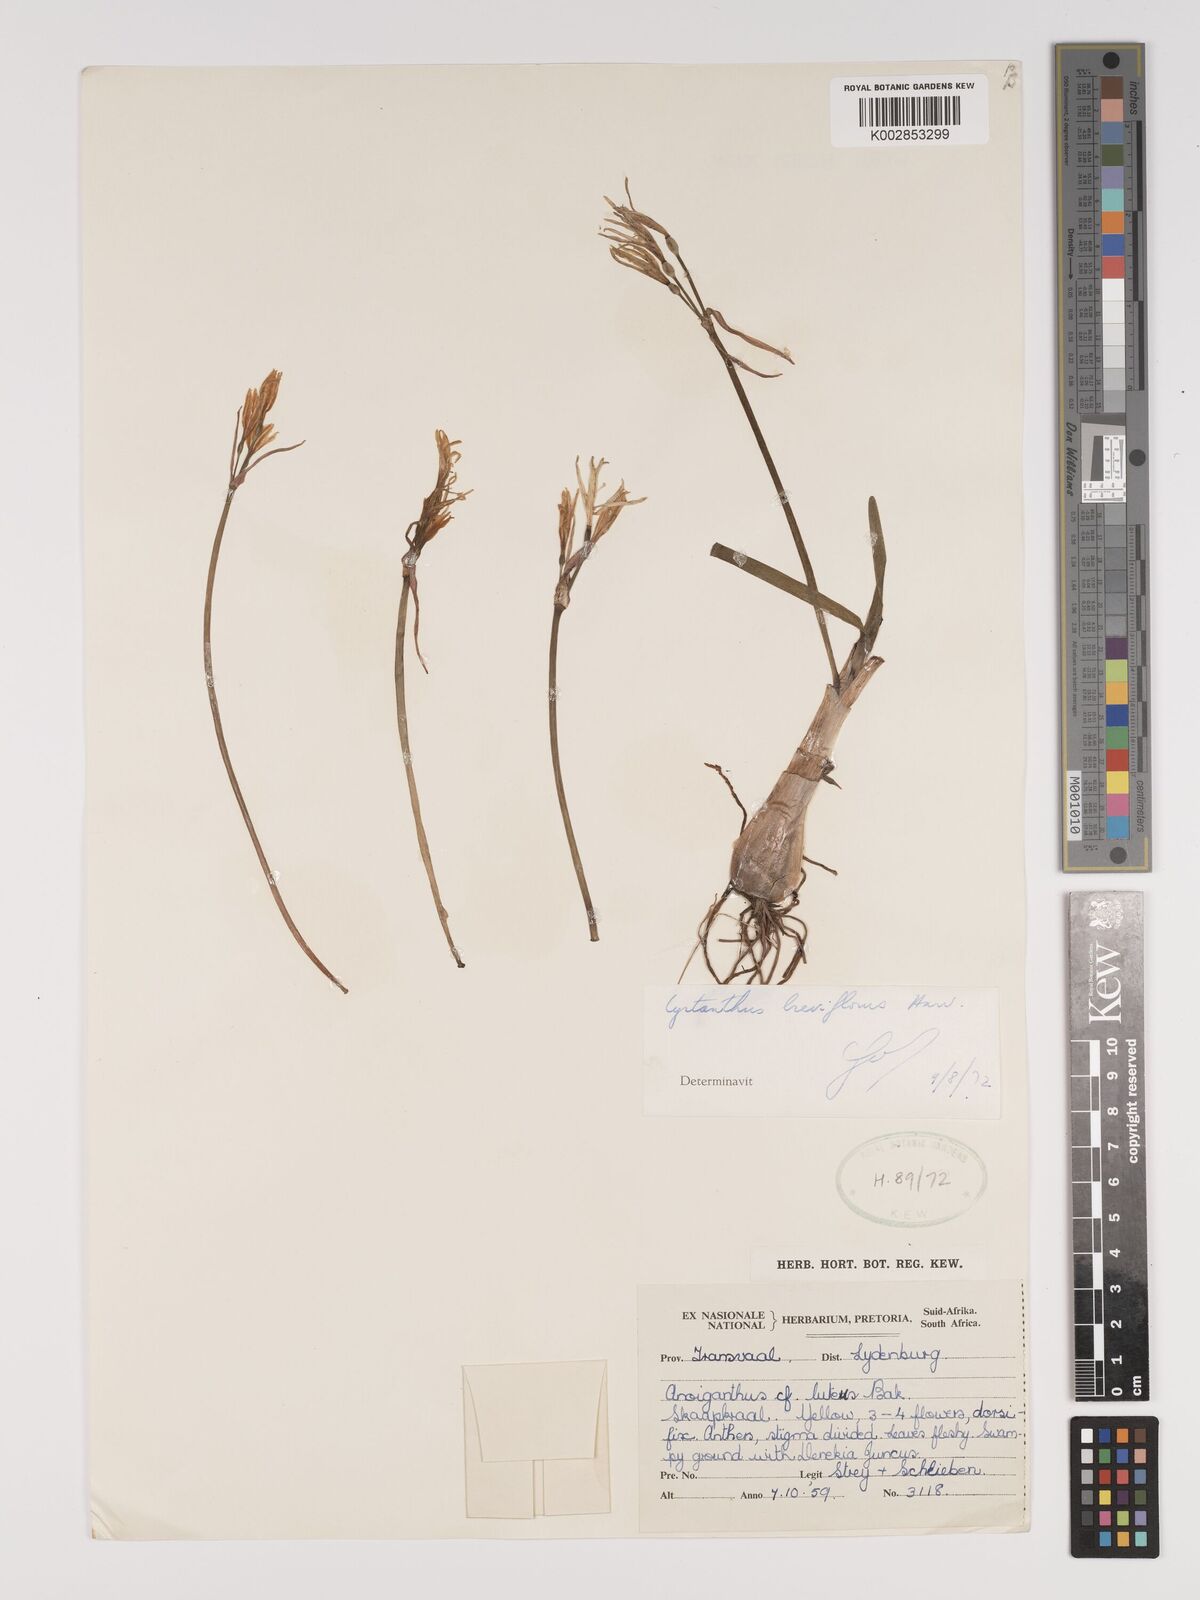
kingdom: Plantae
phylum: Tracheophyta
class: Liliopsida
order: Asparagales
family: Amaryllidaceae
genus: Cyrtanthus
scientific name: Cyrtanthus breviflorus
